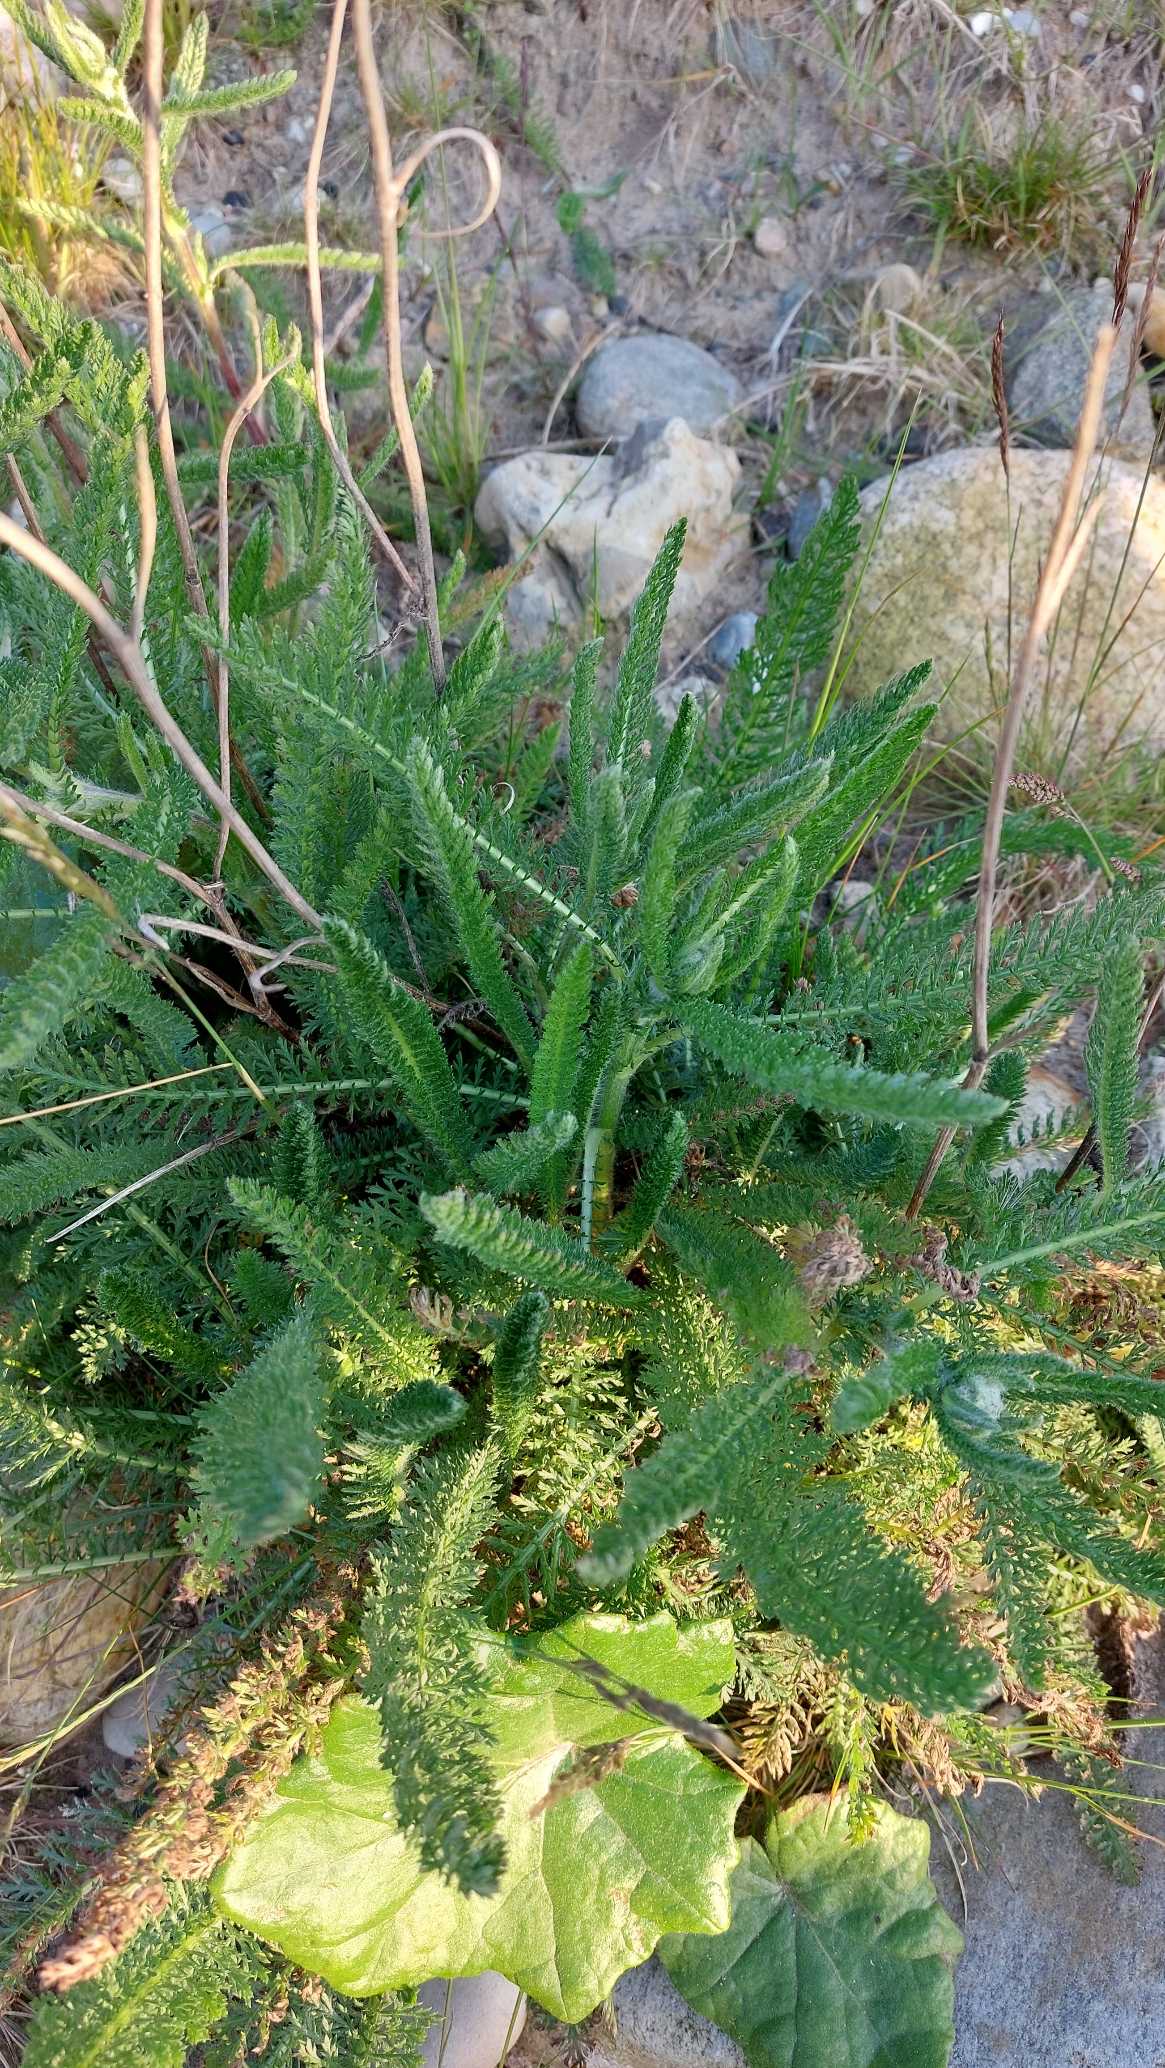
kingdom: Plantae
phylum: Tracheophyta
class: Magnoliopsida
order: Asterales
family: Asteraceae
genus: Achillea
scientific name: Achillea millefolium
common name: Almindelig røllike
